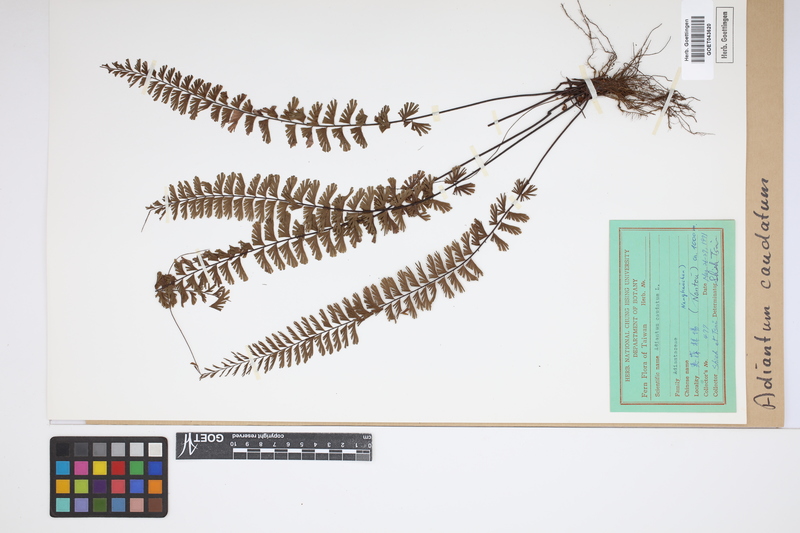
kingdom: Plantae
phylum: Tracheophyta
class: Polypodiopsida
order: Polypodiales
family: Pteridaceae
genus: Adiantum
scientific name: Adiantum caudatum
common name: Tailed maidenhair
